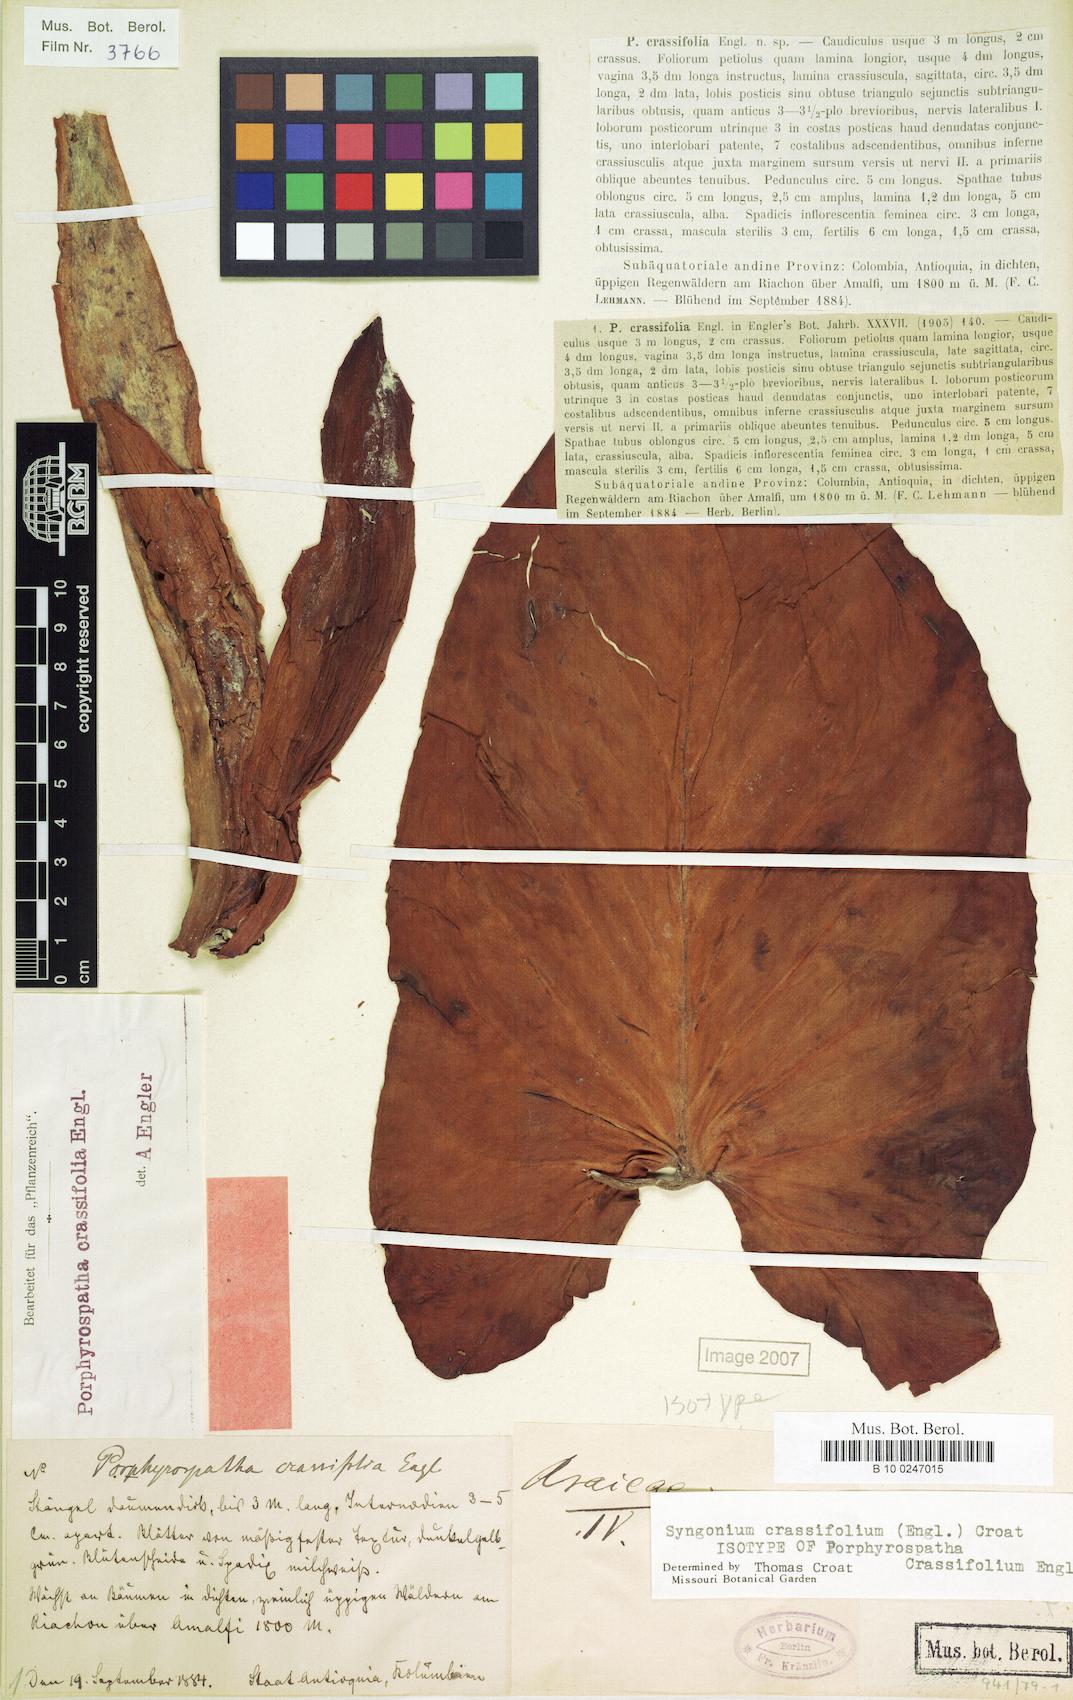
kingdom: Plantae
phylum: Tracheophyta
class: Liliopsida
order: Alismatales
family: Araceae
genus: Syngonium
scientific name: Syngonium crassifolium
